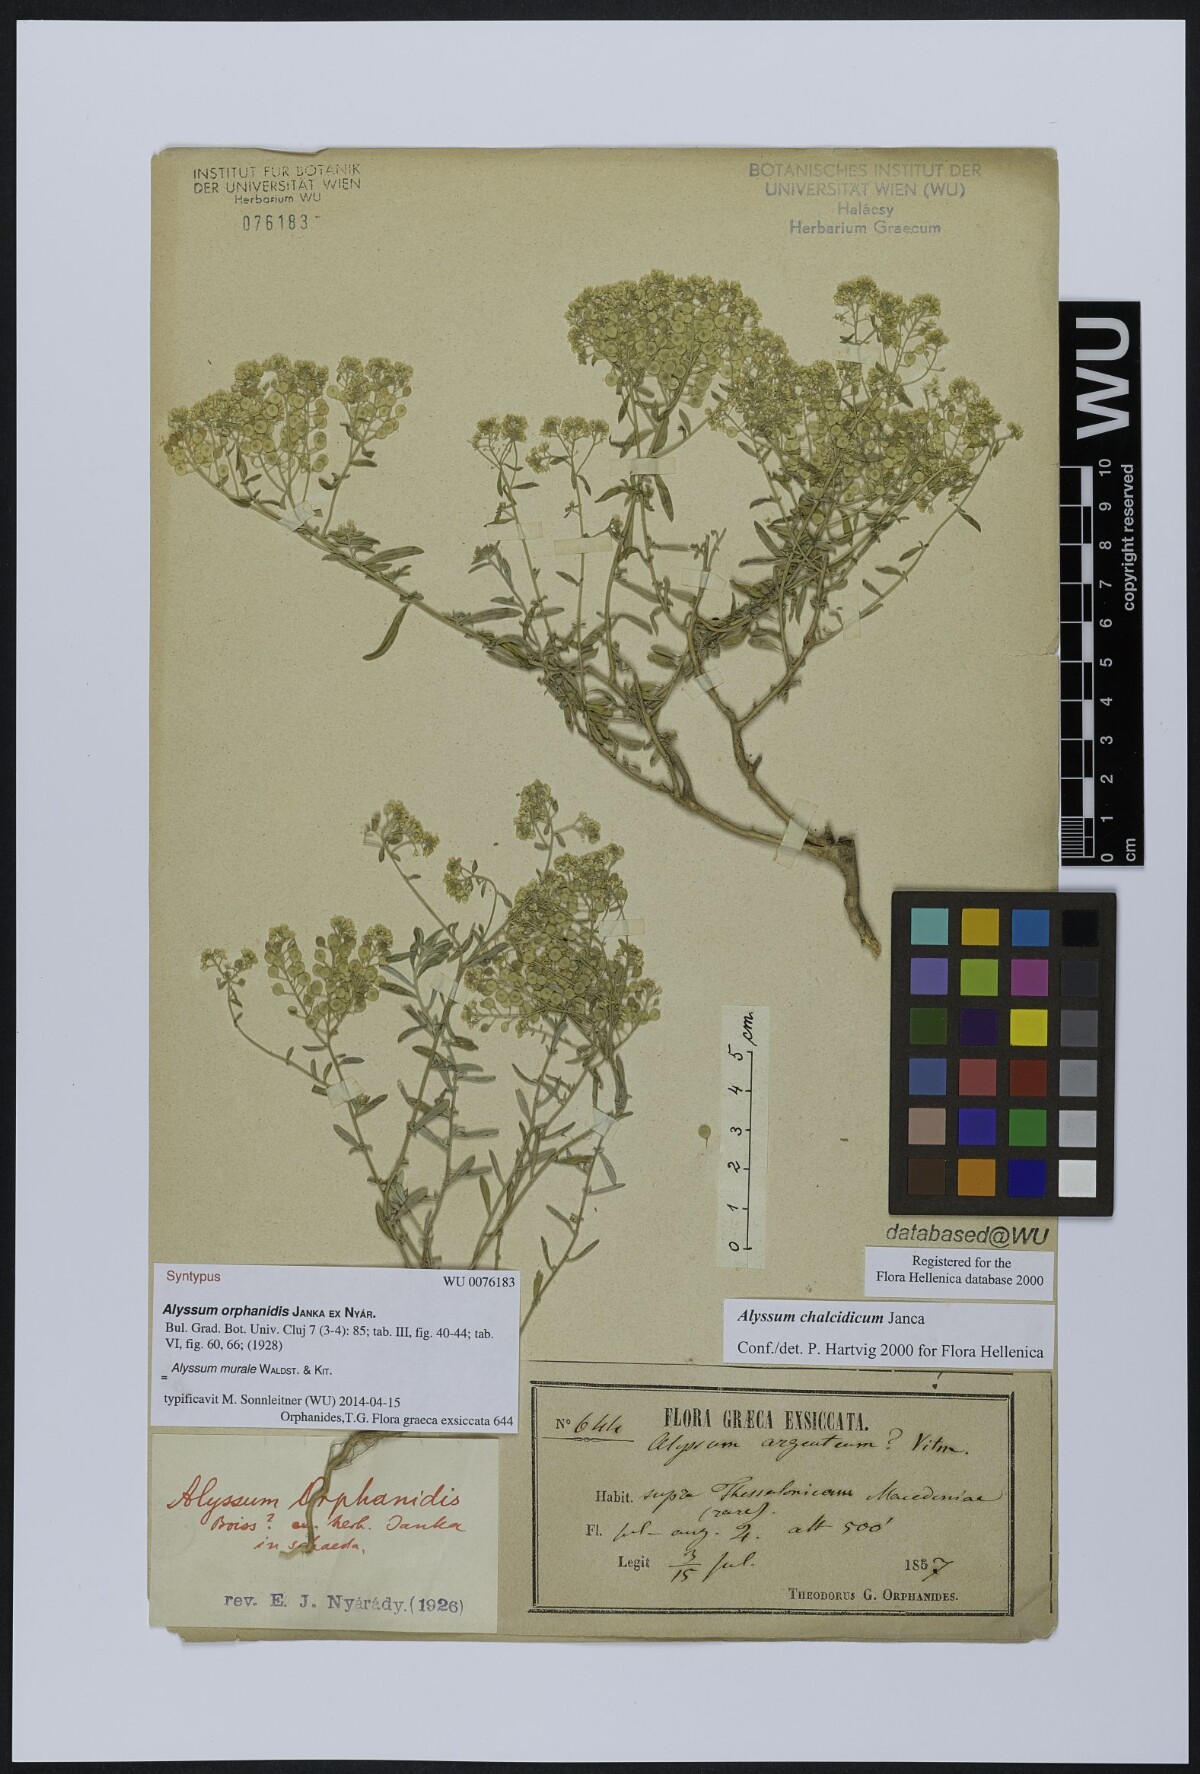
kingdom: Plantae
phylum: Tracheophyta
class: Magnoliopsida
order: Brassicales
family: Brassicaceae
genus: Odontarrhena
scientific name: Odontarrhena muralis
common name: Rock alyssum
